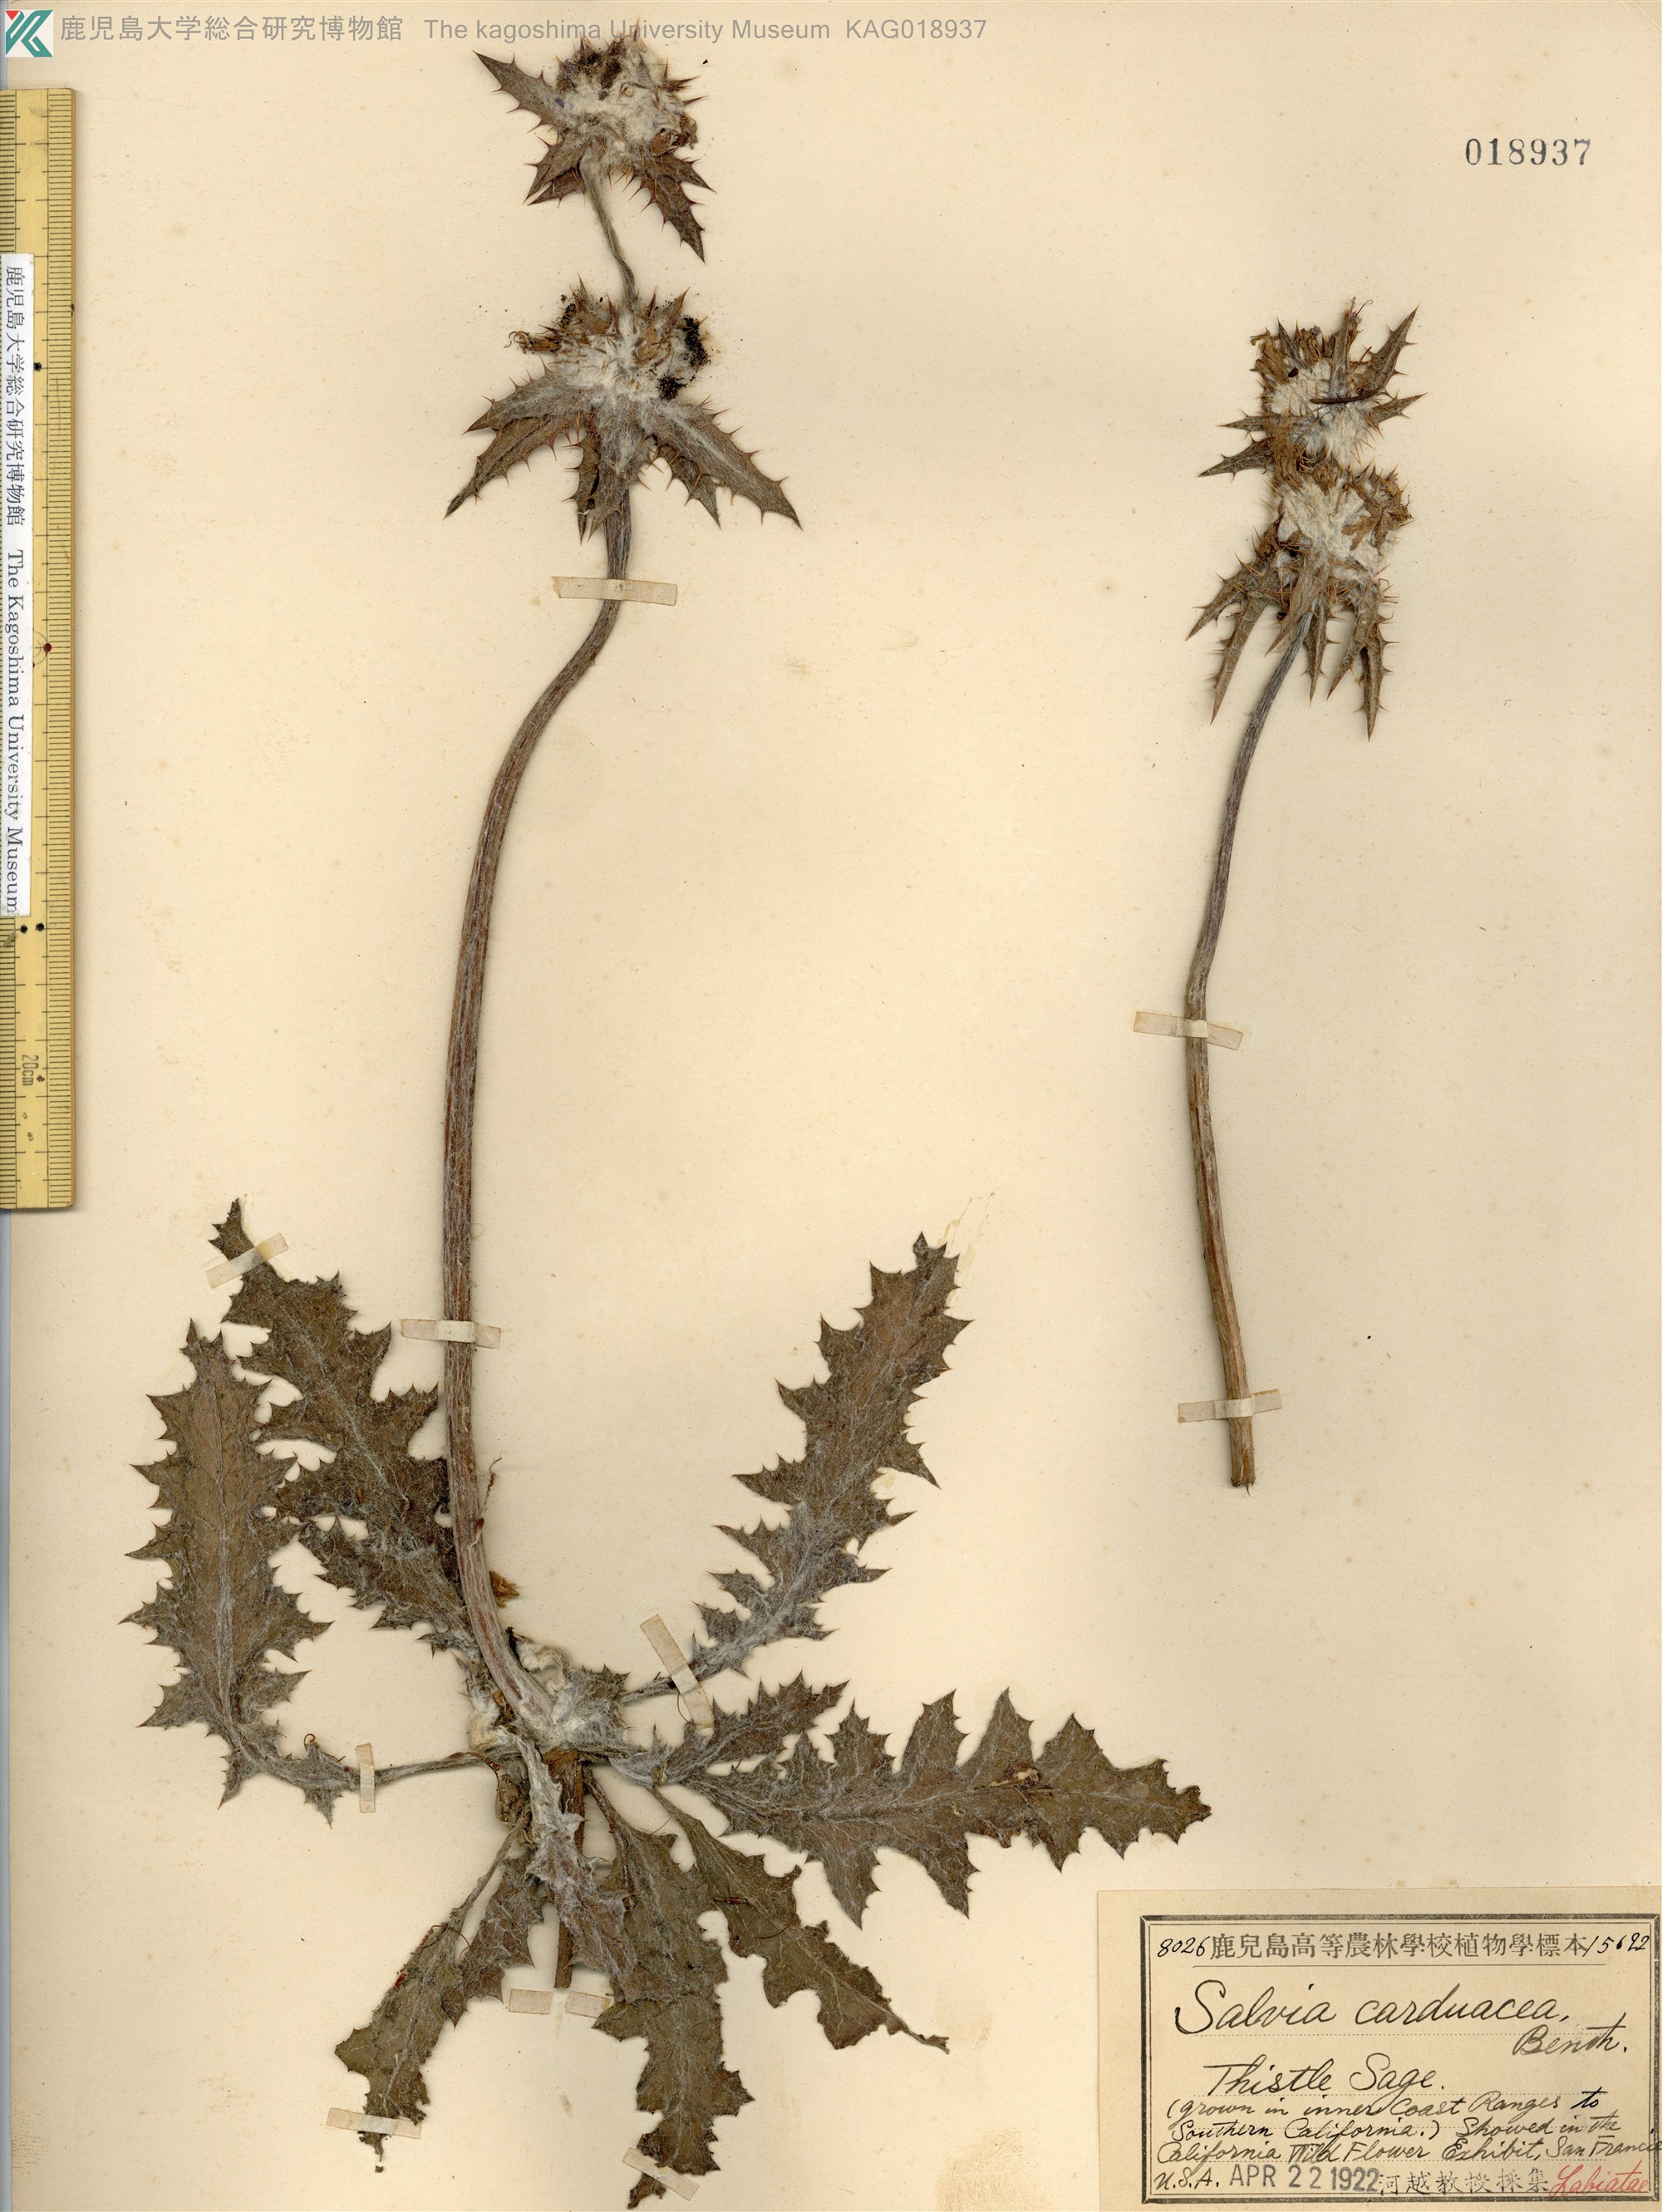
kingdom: Plantae
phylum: Tracheophyta
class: Magnoliopsida
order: Lamiales
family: Lamiaceae
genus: Salvia
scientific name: Salvia coccinea
